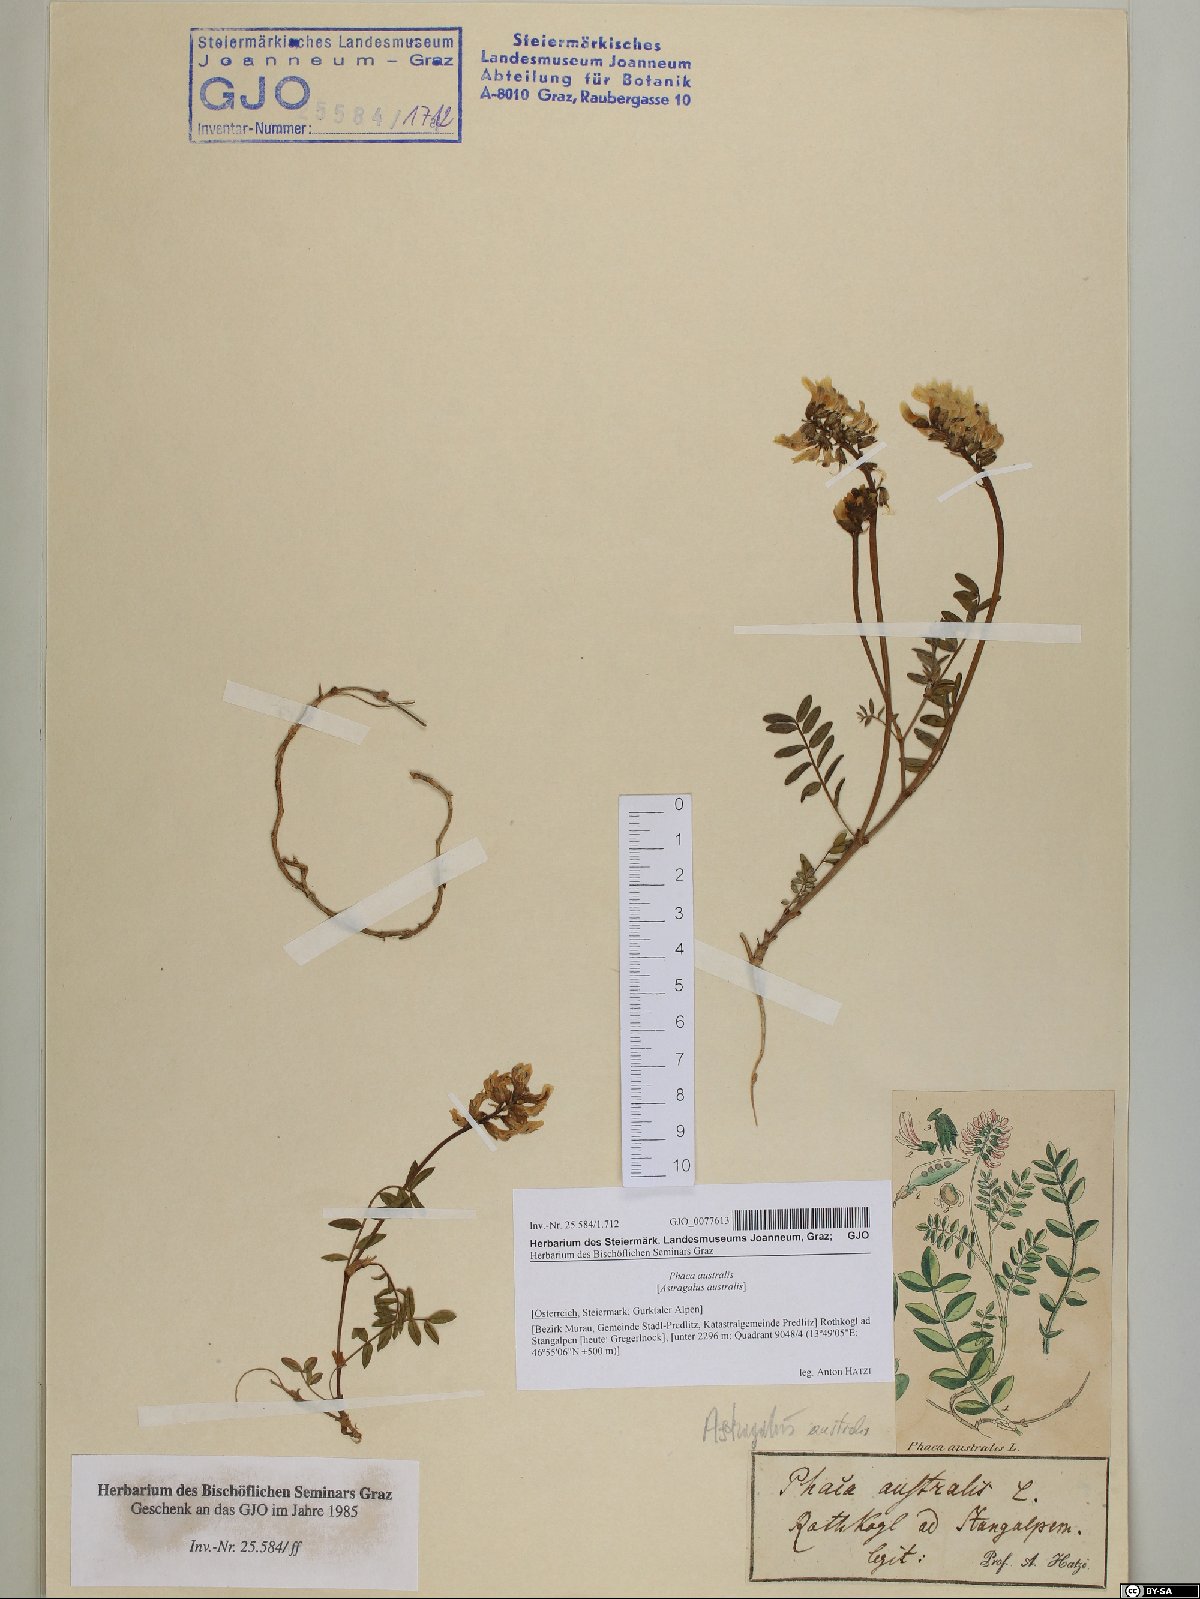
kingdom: Plantae
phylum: Tracheophyta
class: Magnoliopsida
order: Fabales
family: Fabaceae
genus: Astragalus
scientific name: Astragalus australis
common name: Indian milk-vetch
